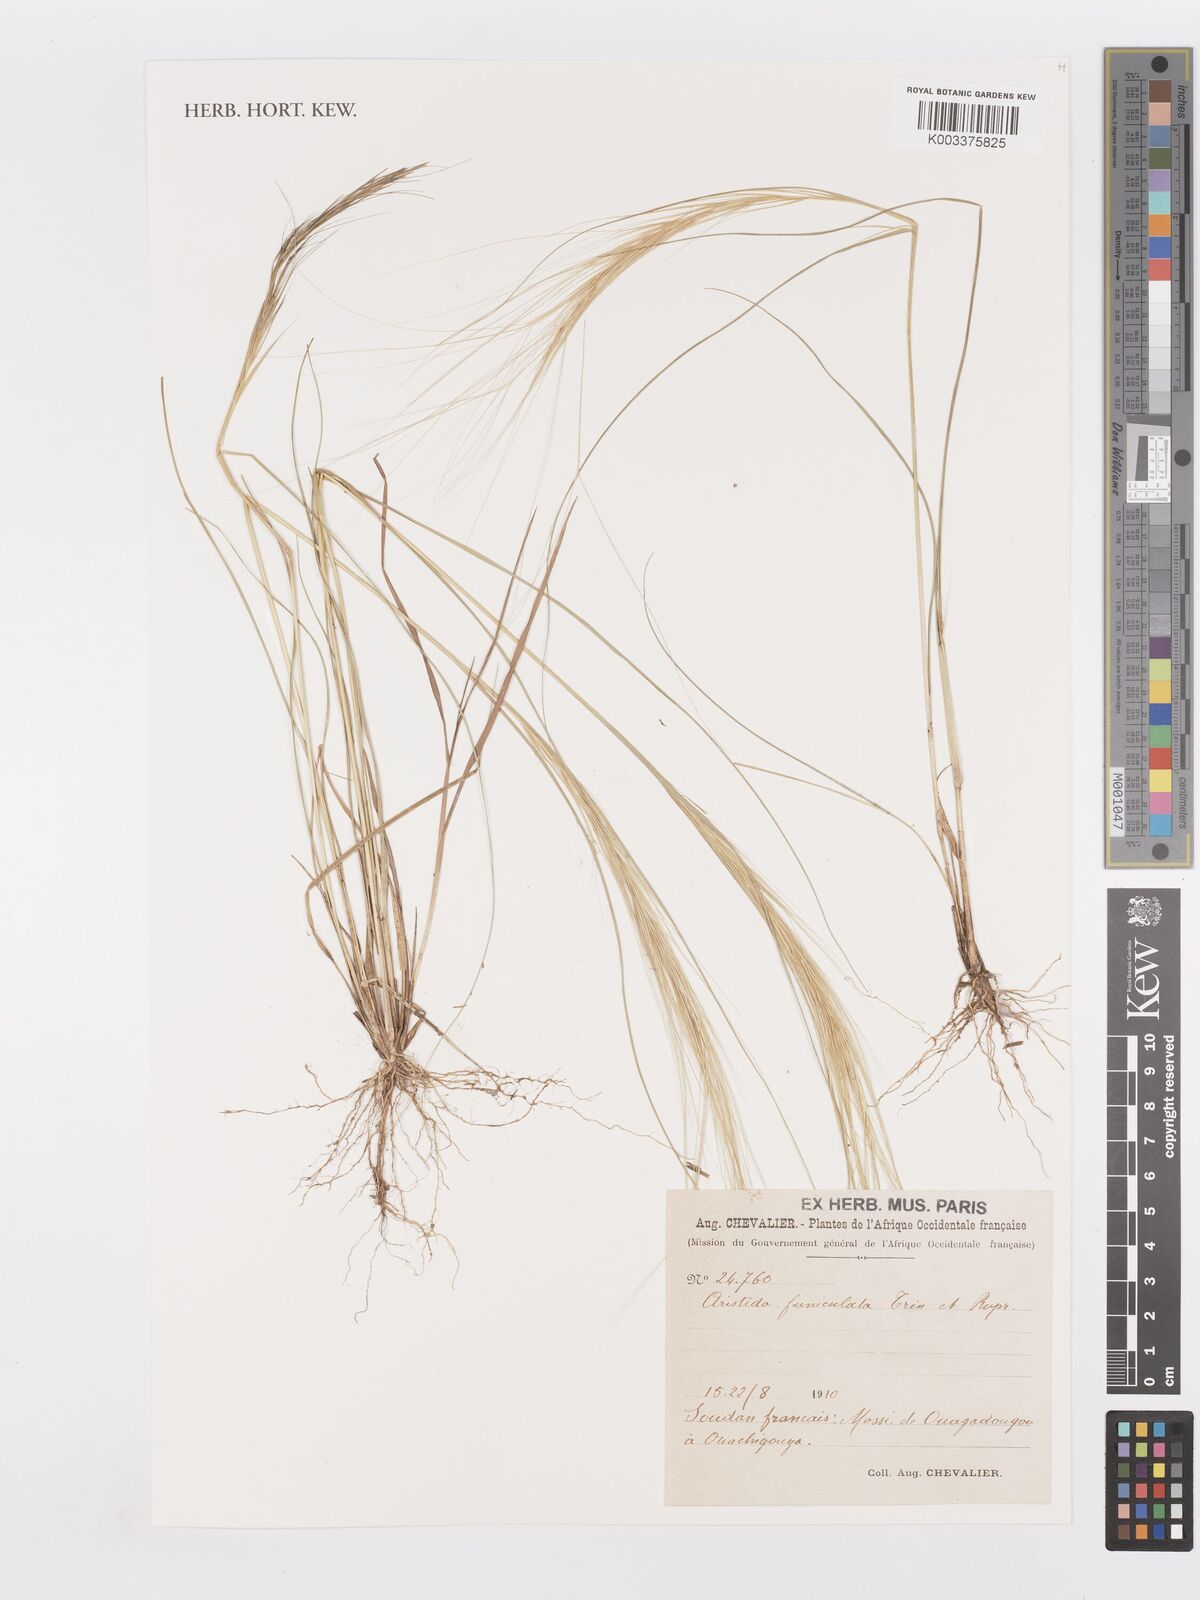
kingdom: Plantae
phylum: Tracheophyta
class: Liliopsida
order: Poales
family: Poaceae
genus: Aristida
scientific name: Aristida funiculata
